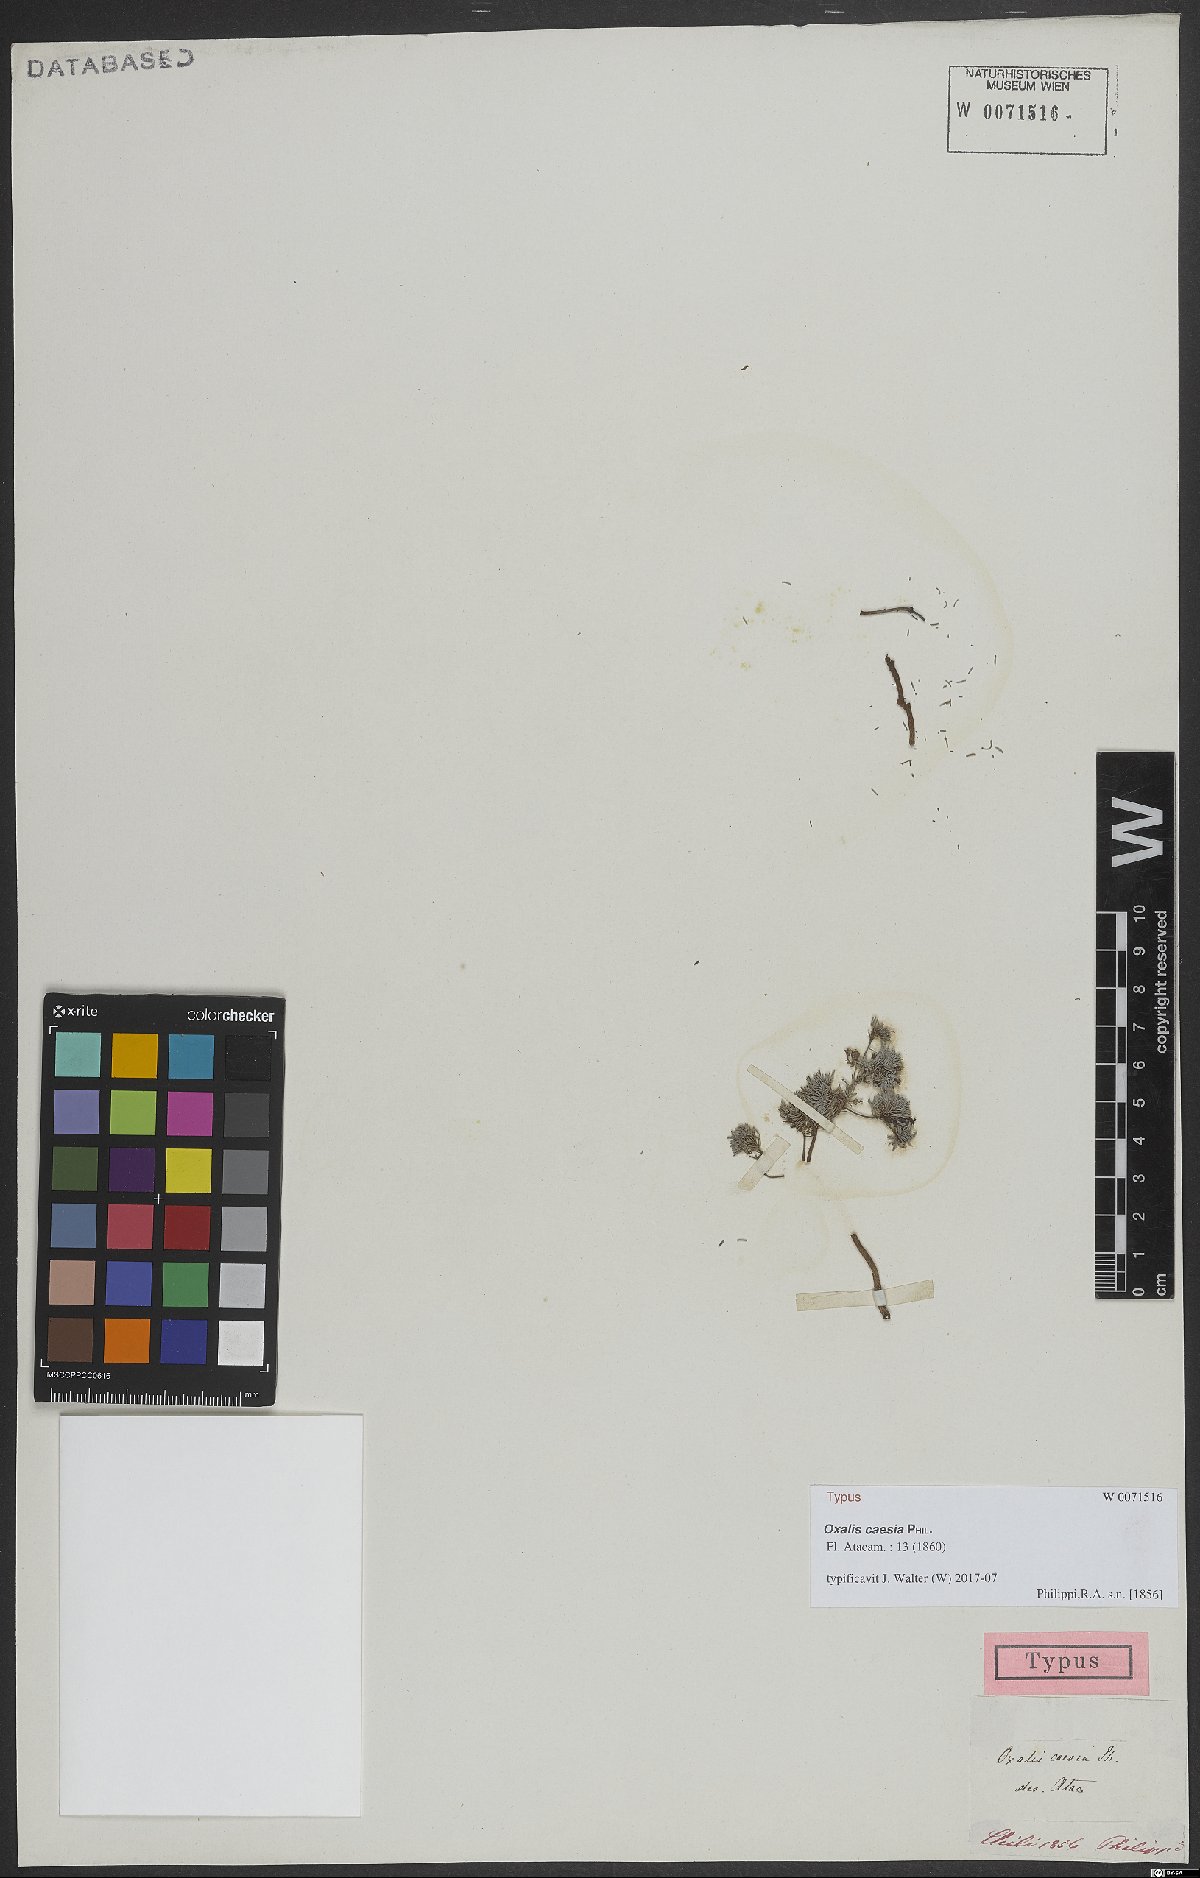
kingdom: Plantae
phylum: Tracheophyta
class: Magnoliopsida
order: Oxalidales
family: Oxalidaceae
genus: Oxalis
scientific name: Oxalis caesia
